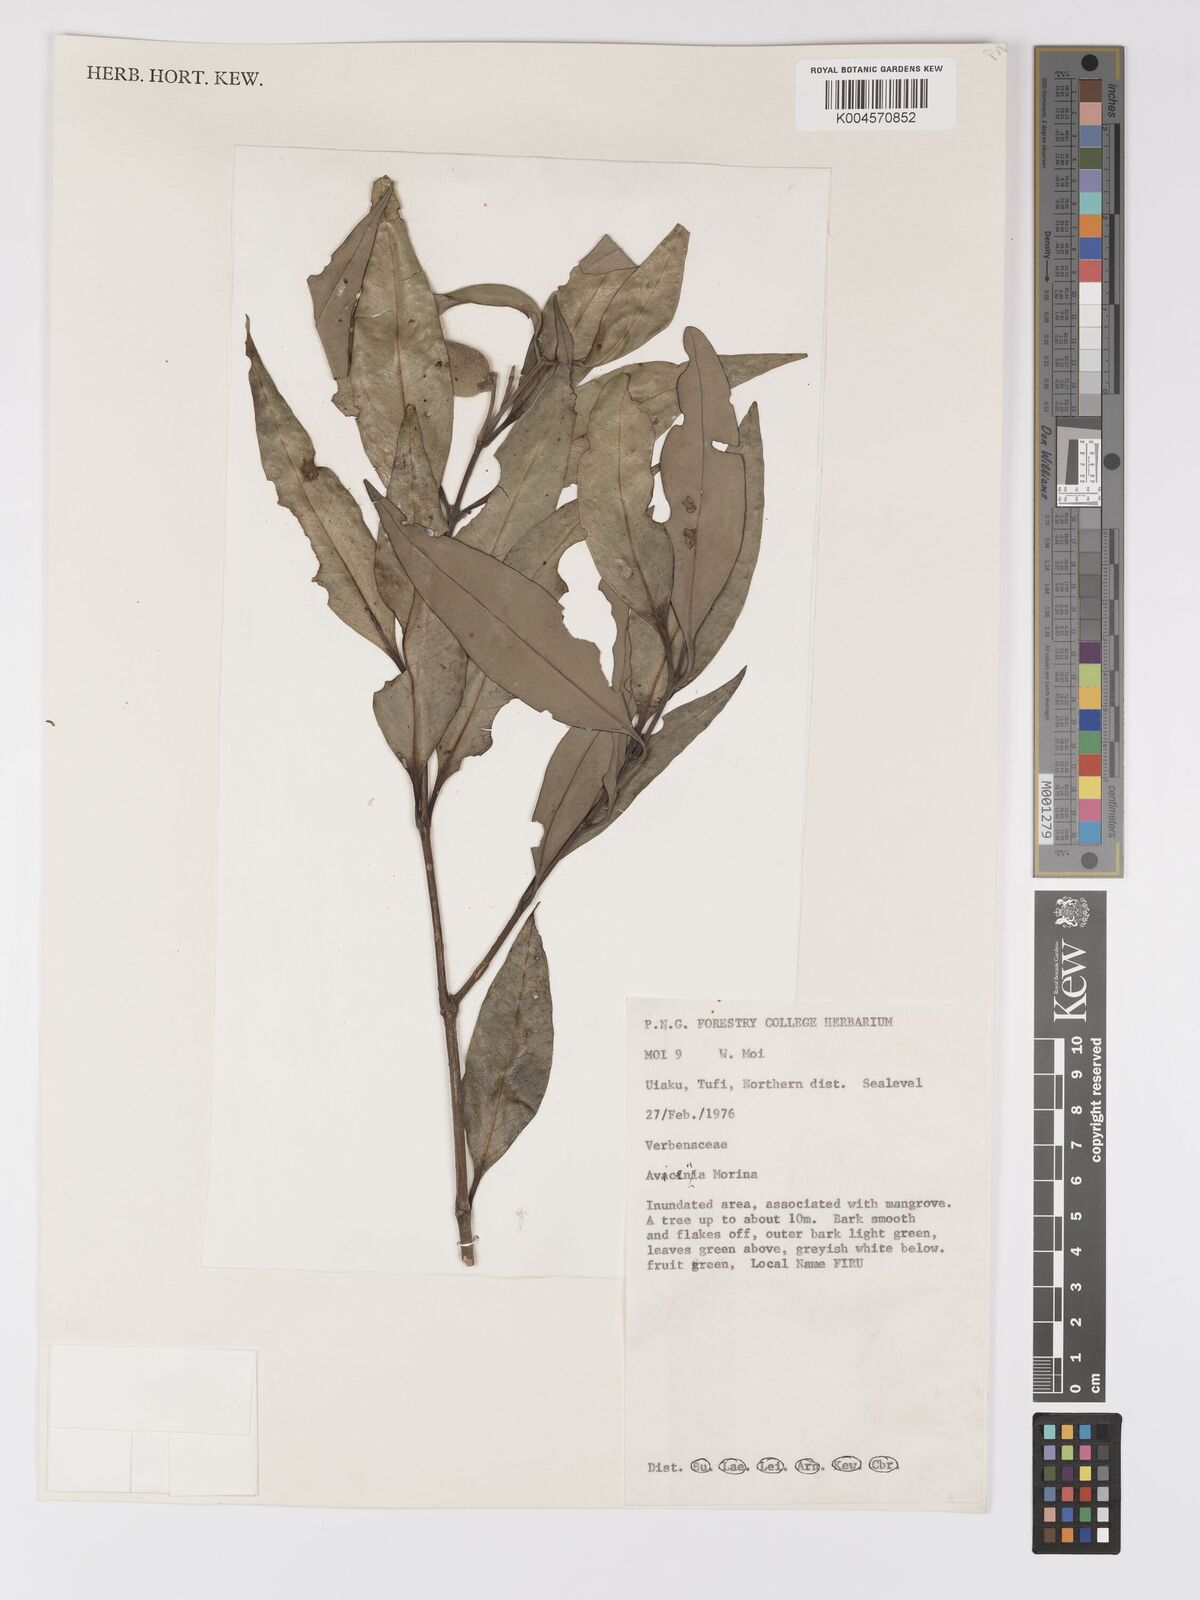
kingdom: Plantae
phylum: Tracheophyta
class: Magnoliopsida
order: Lamiales
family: Acanthaceae
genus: Avicennia
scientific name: Avicennia marina
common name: Gray mangrove
